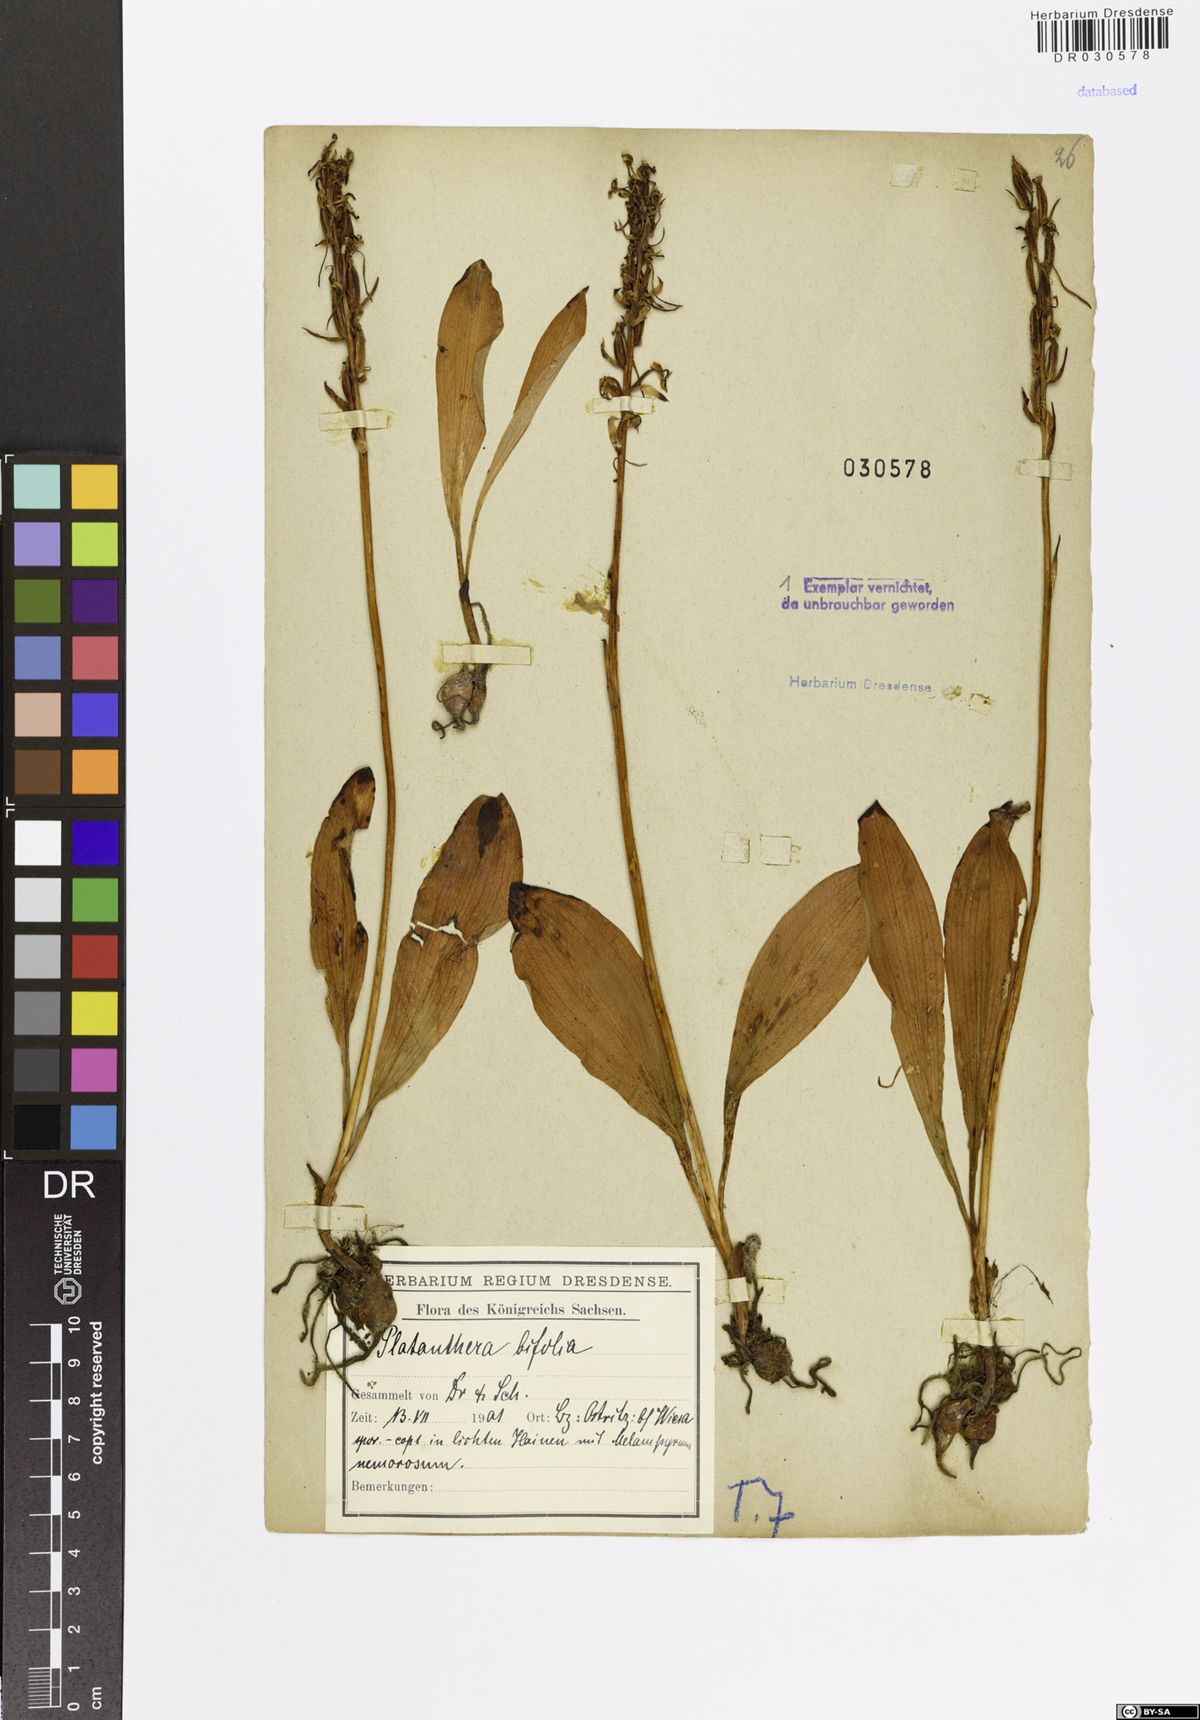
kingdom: Plantae
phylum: Tracheophyta
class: Liliopsida
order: Asparagales
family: Orchidaceae
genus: Platanthera
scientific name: Platanthera bifolia
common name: Lesser butterfly-orchid
